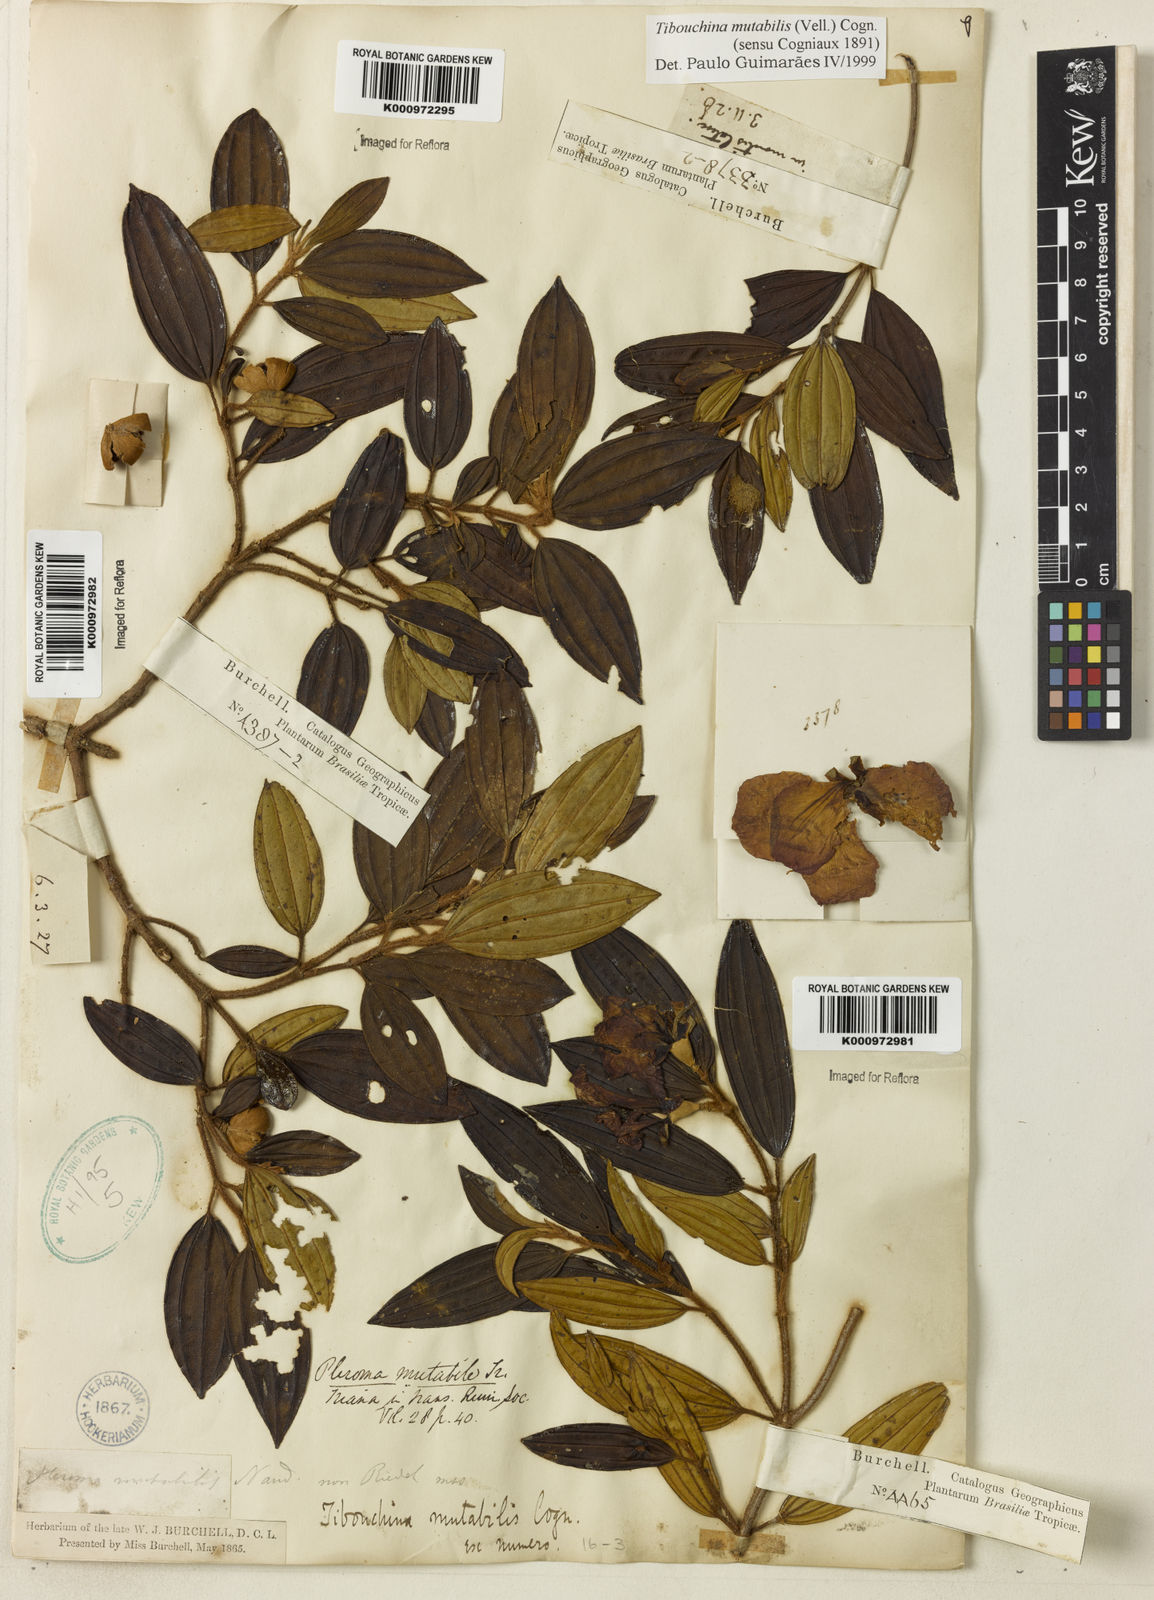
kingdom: Plantae
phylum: Tracheophyta
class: Magnoliopsida
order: Myrtales
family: Melastomataceae
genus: Pleroma
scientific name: Pleroma mutabile
